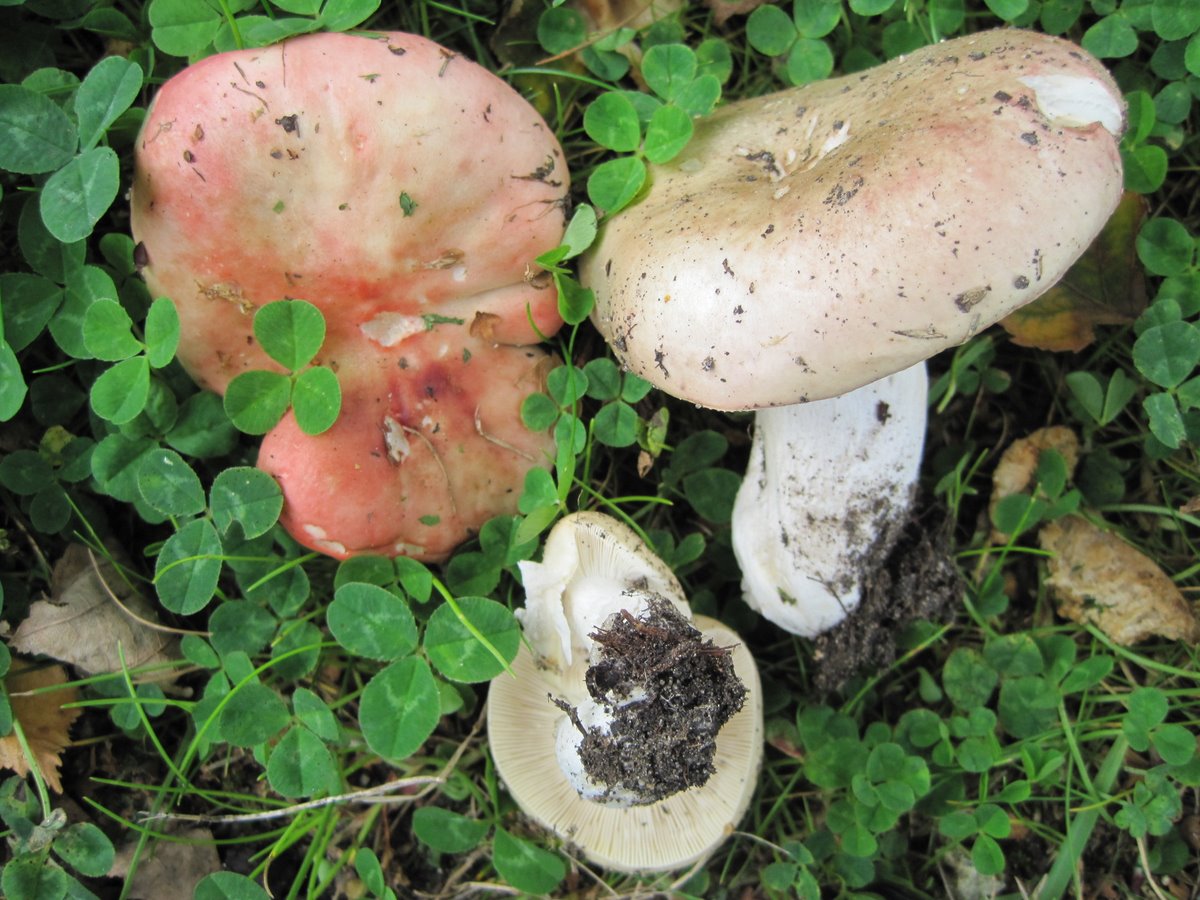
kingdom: Fungi
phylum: Basidiomycota
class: Agaricomycetes
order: Russulales
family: Russulaceae
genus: Russula
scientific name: Russula depallens
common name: falmende skørhat
